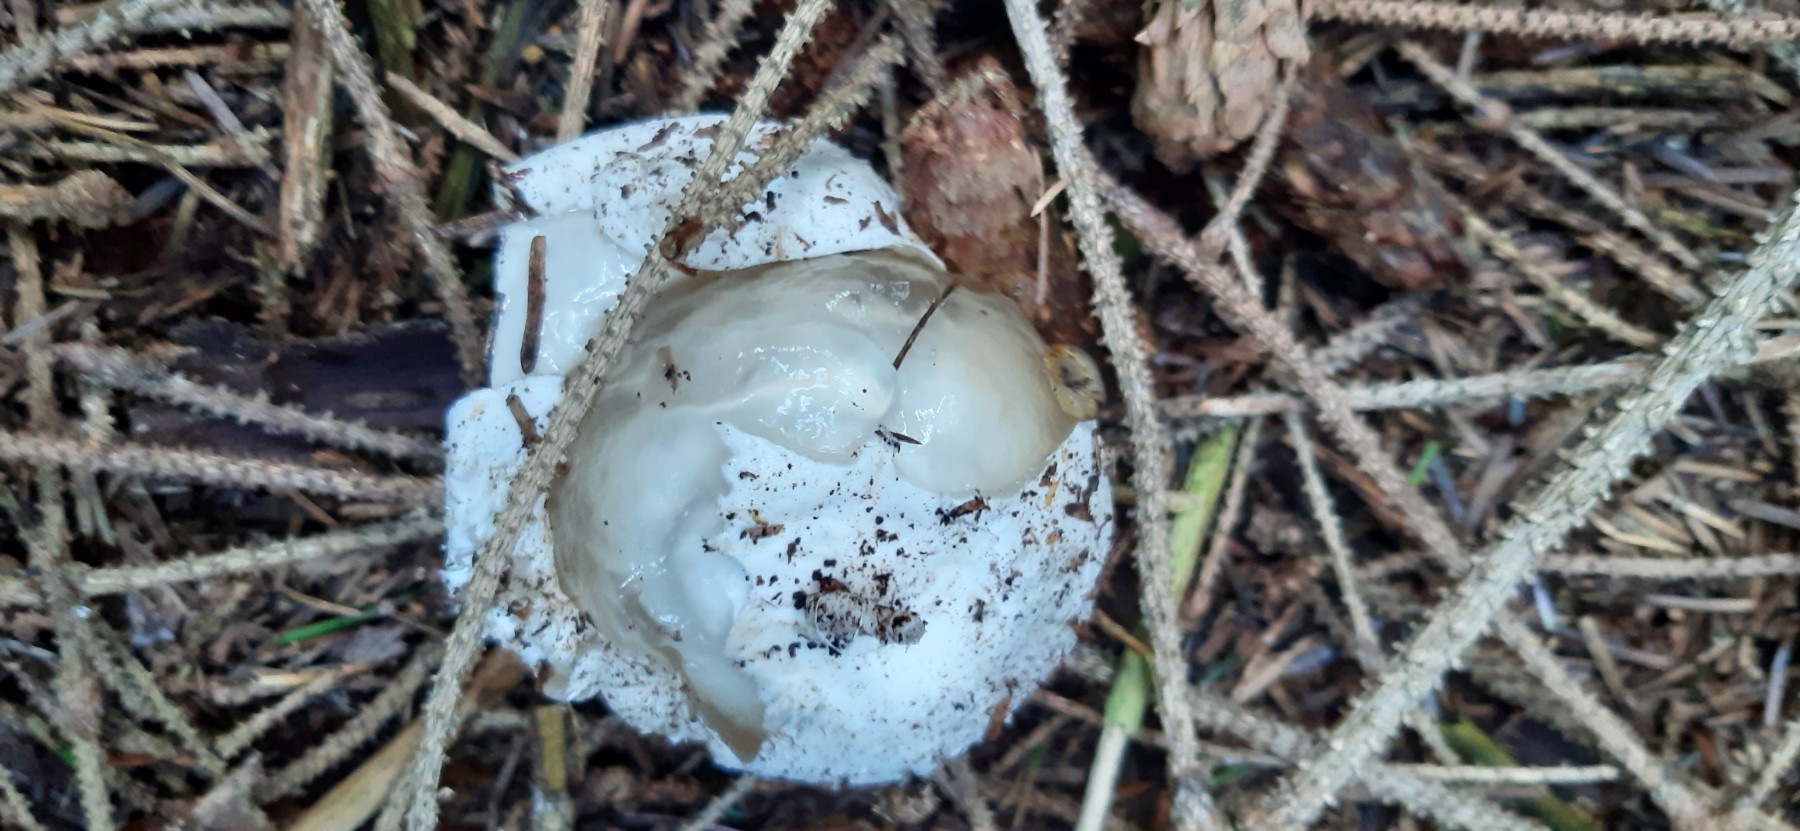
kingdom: Fungi
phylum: Basidiomycota
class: Agaricomycetes
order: Phallales
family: Phallaceae
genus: Phallus
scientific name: Phallus
